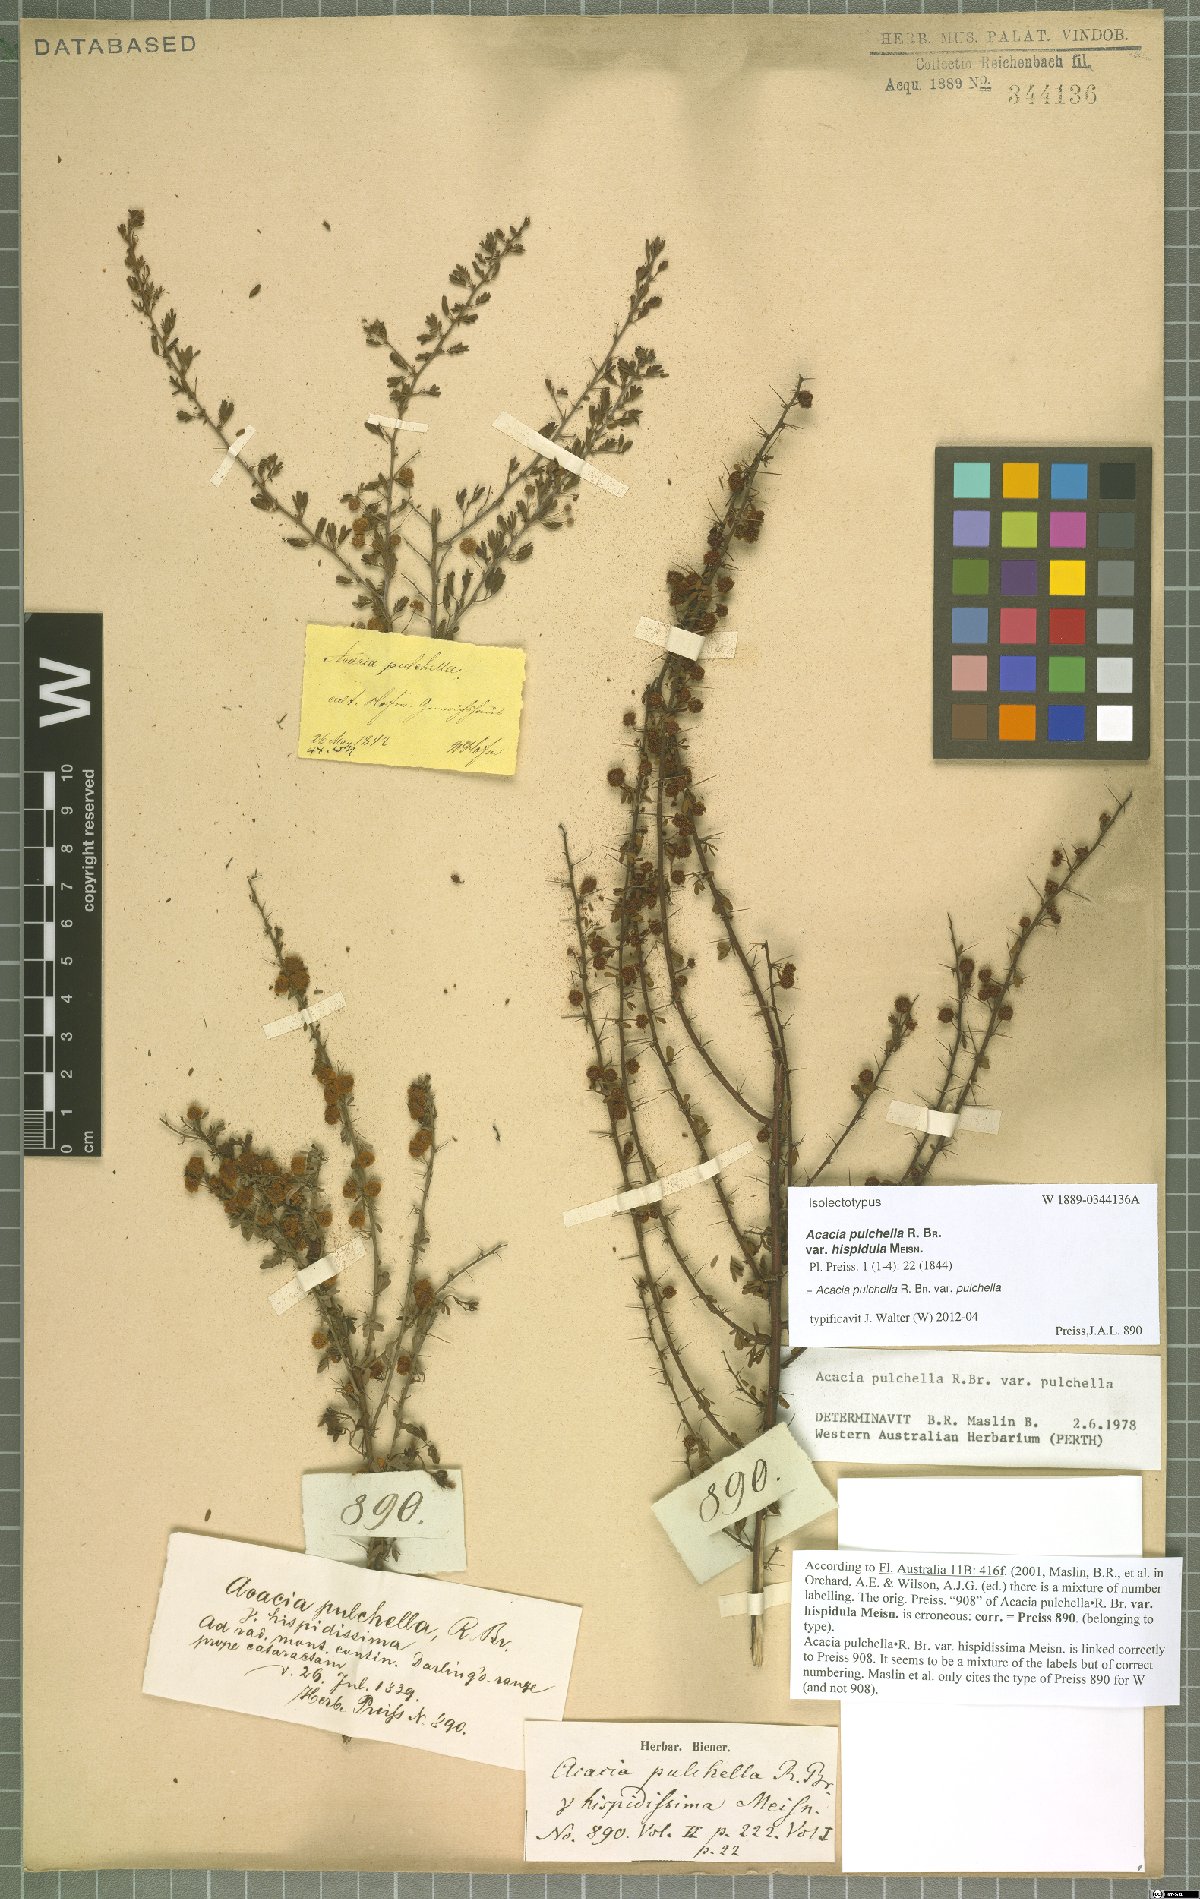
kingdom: Plantae
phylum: Tracheophyta
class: Magnoliopsida
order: Fabales
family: Fabaceae
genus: Acacia
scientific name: Acacia pulchella
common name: Prickly moses
